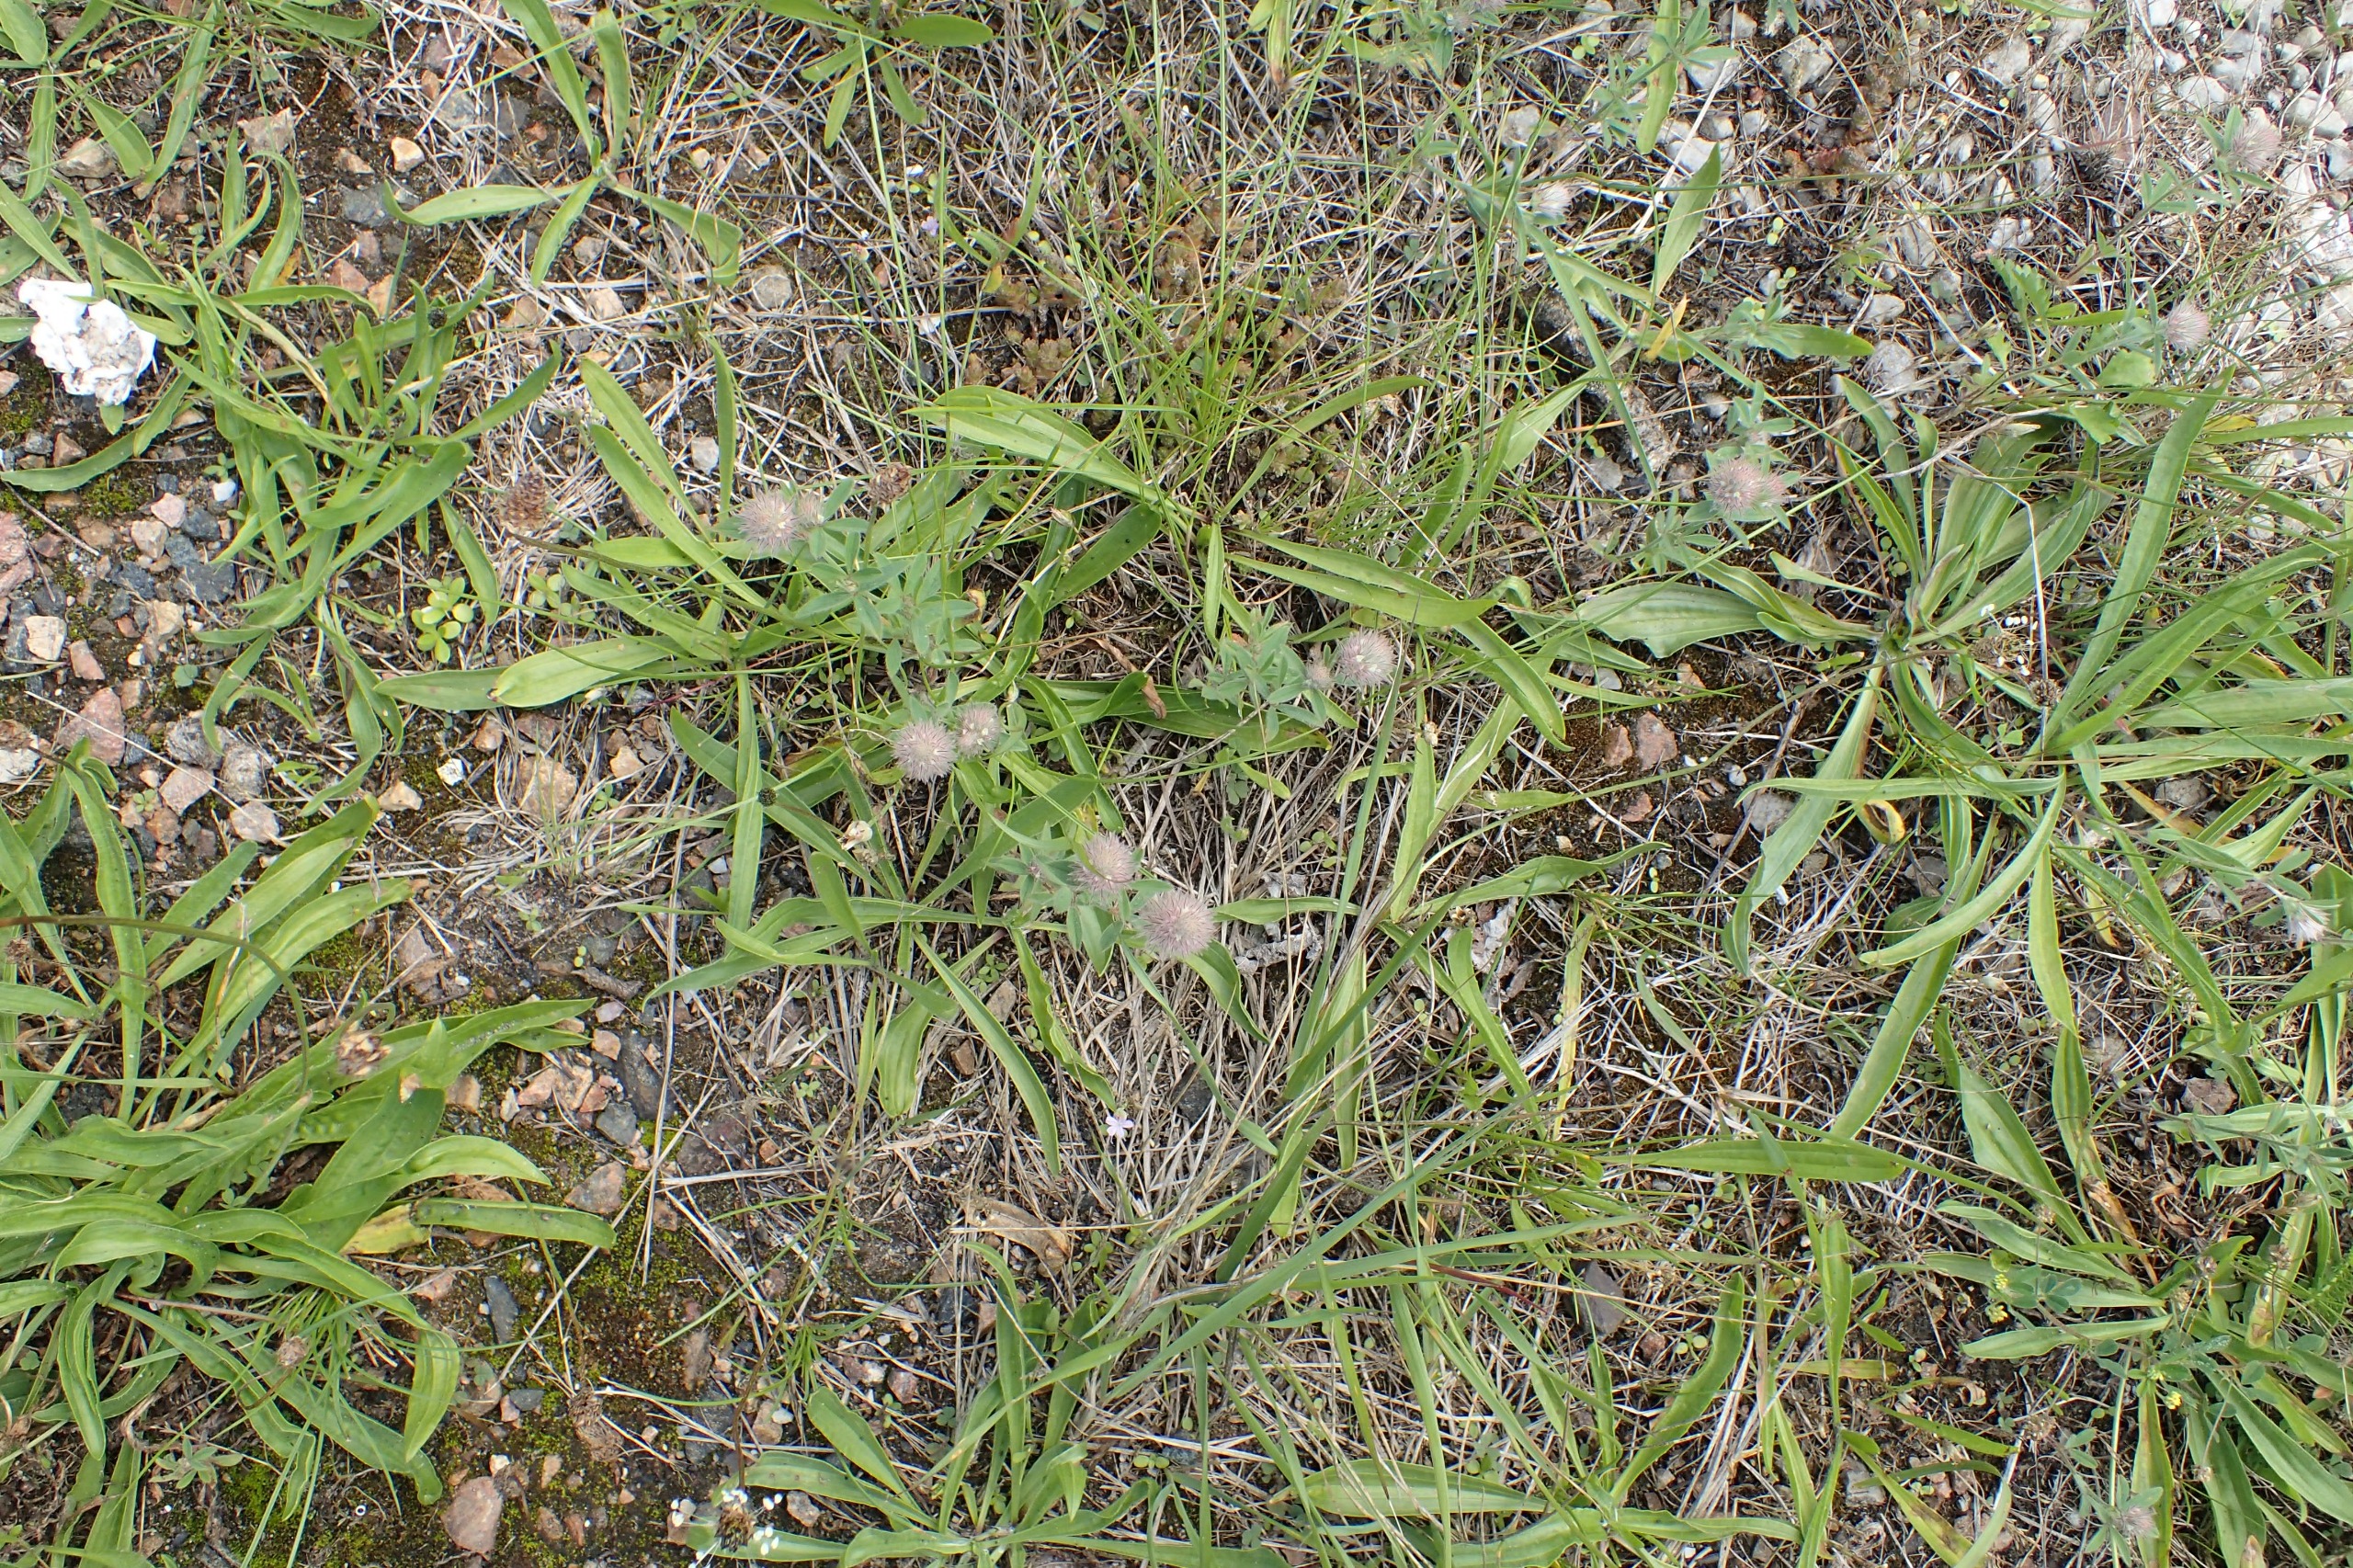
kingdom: Plantae
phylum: Tracheophyta
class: Magnoliopsida
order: Fabales
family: Fabaceae
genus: Trifolium
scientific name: Trifolium arvense
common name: Hare-kløver
